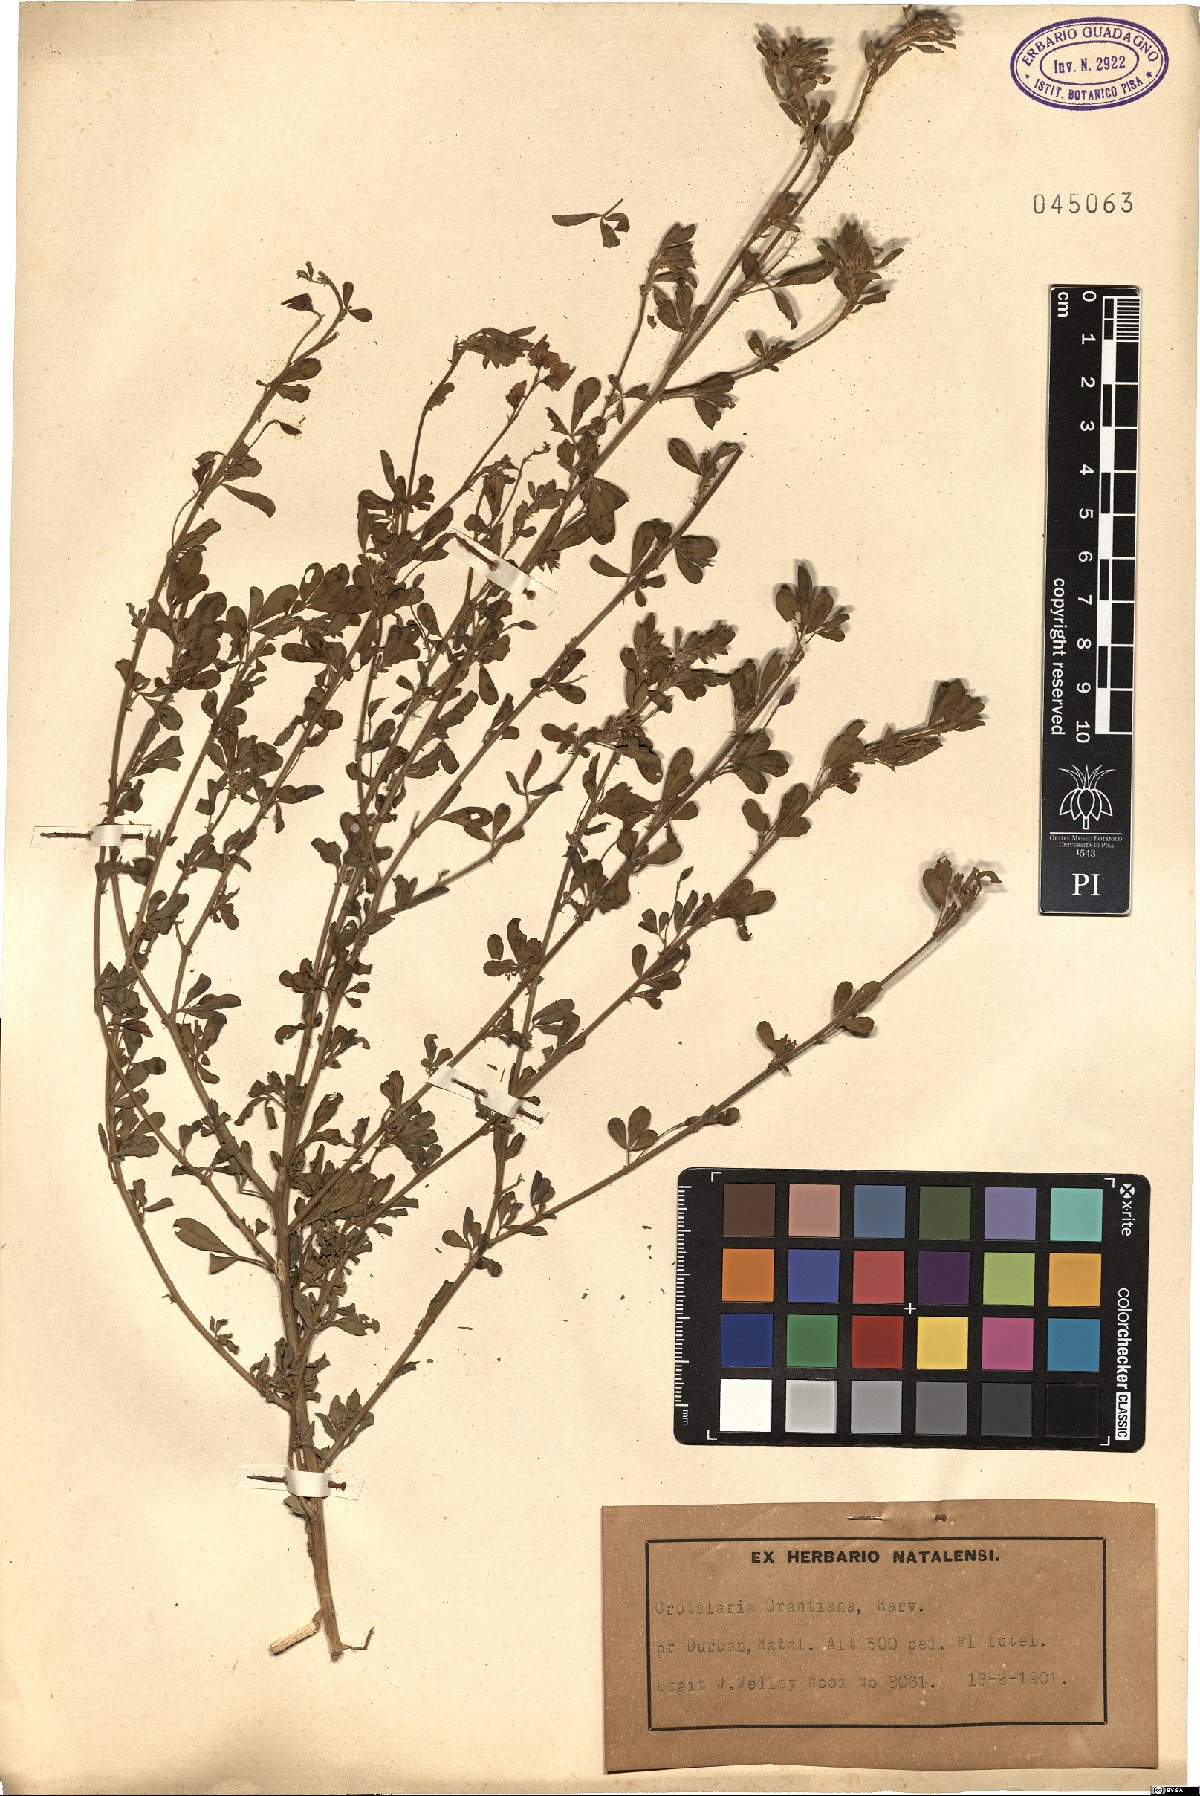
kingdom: Plantae
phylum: Tracheophyta
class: Magnoliopsida
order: Fabales
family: Fabaceae
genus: Crotalaria
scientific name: Crotalaria virgulata
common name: Thicket rattlebox
